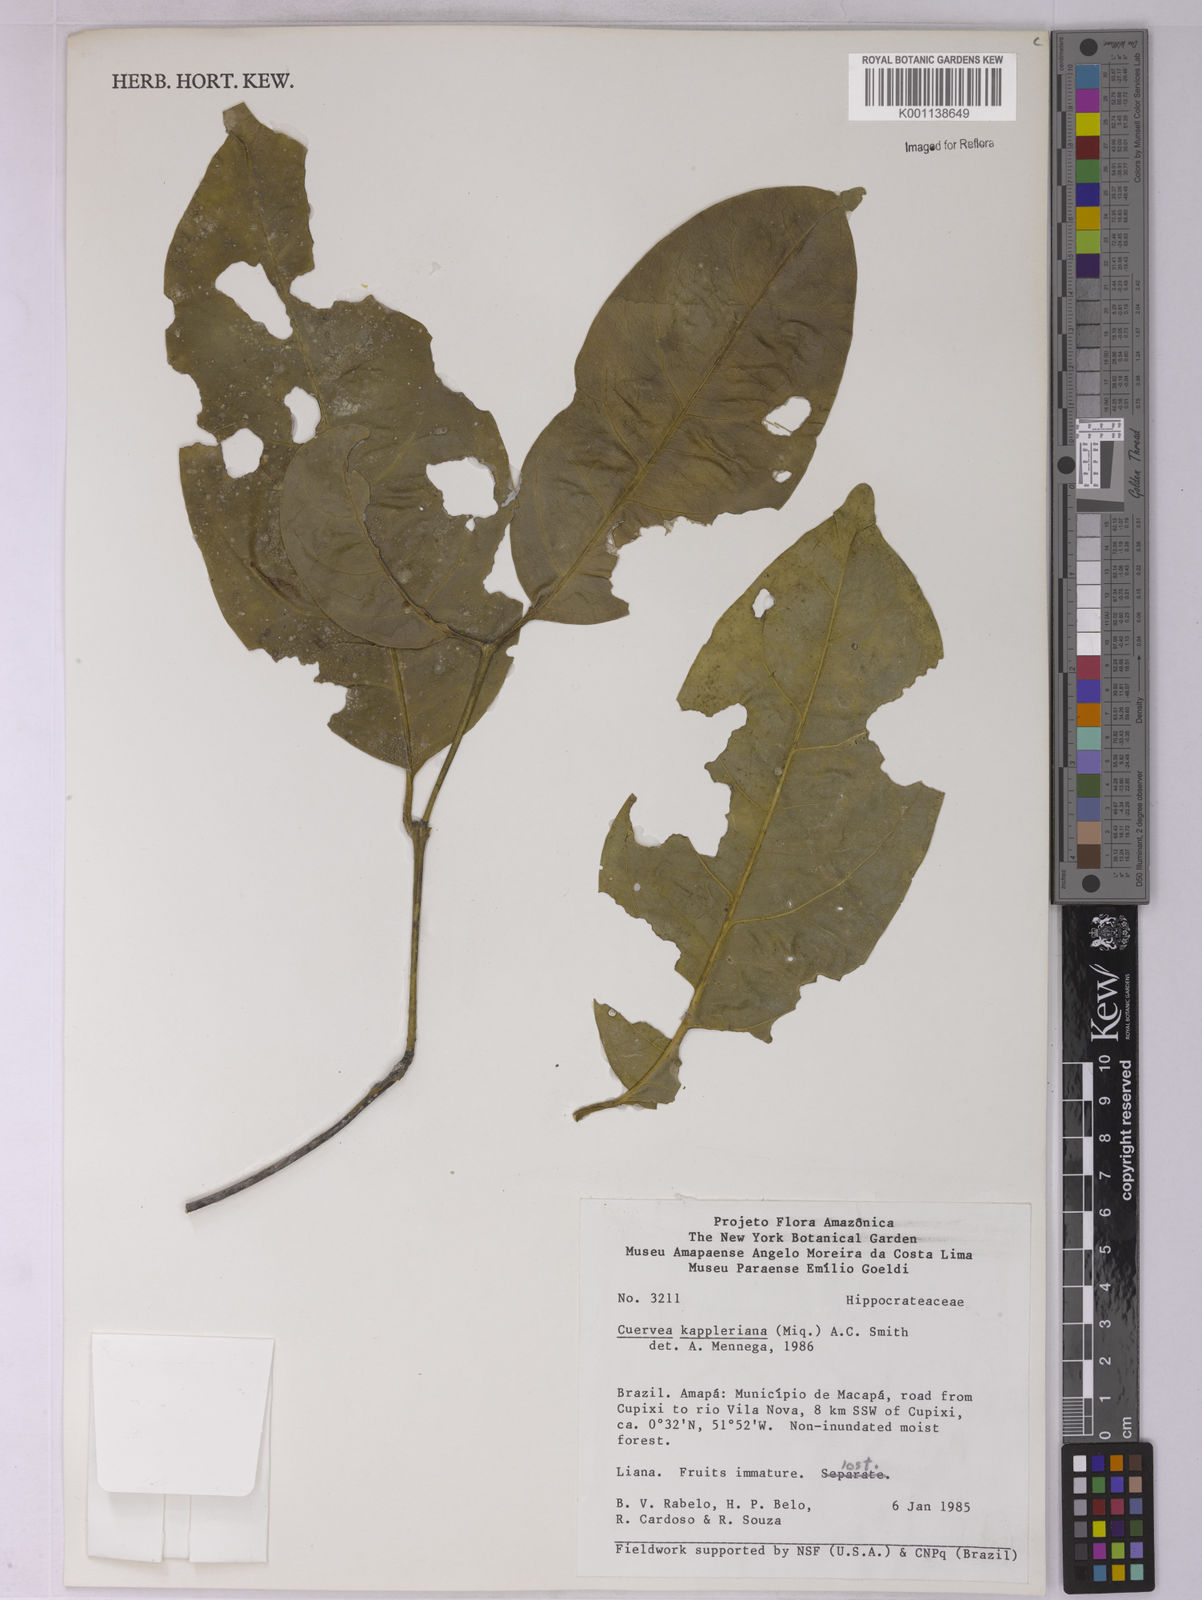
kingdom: Plantae
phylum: Tracheophyta
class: Magnoliopsida
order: Celastrales
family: Celastraceae
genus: Cuervea
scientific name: Cuervea kappleriana
